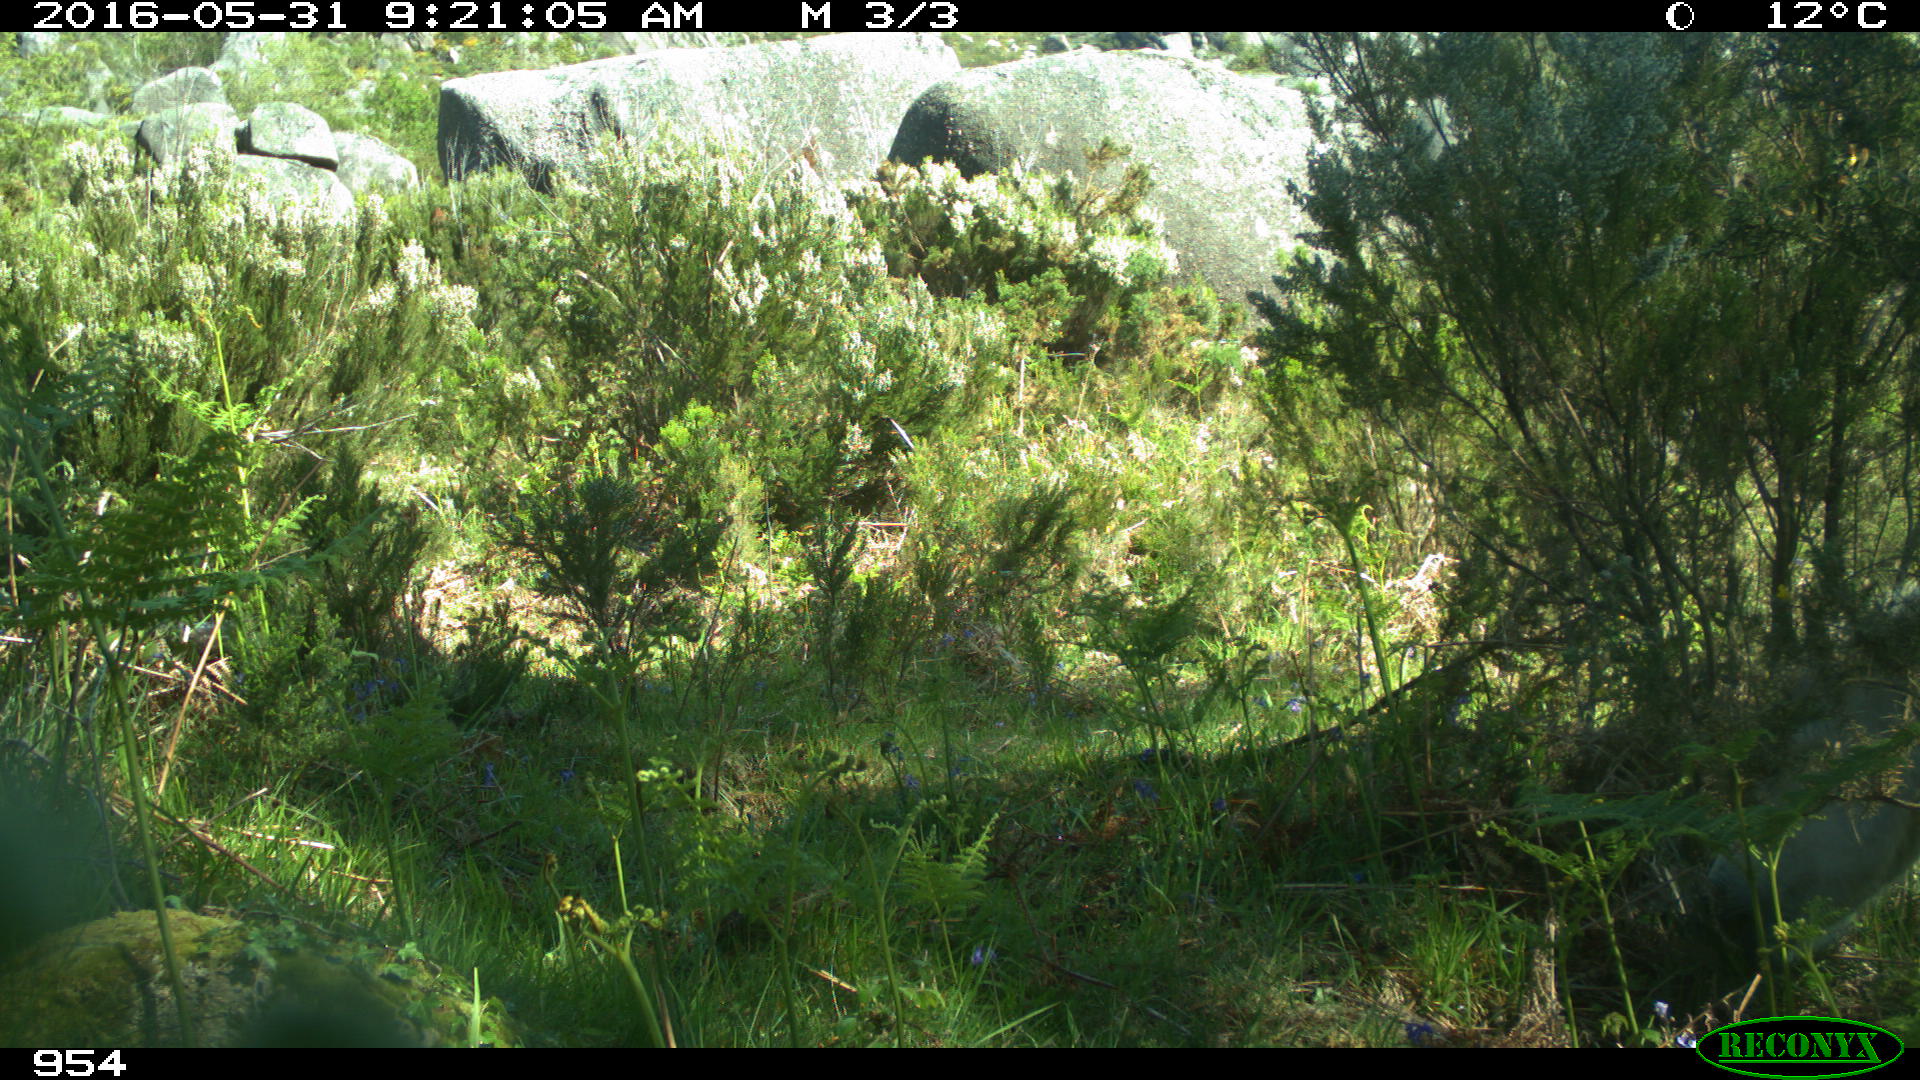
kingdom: Animalia
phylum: Chordata
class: Mammalia
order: Perissodactyla
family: Equidae
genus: Equus
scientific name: Equus caballus
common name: Horse
